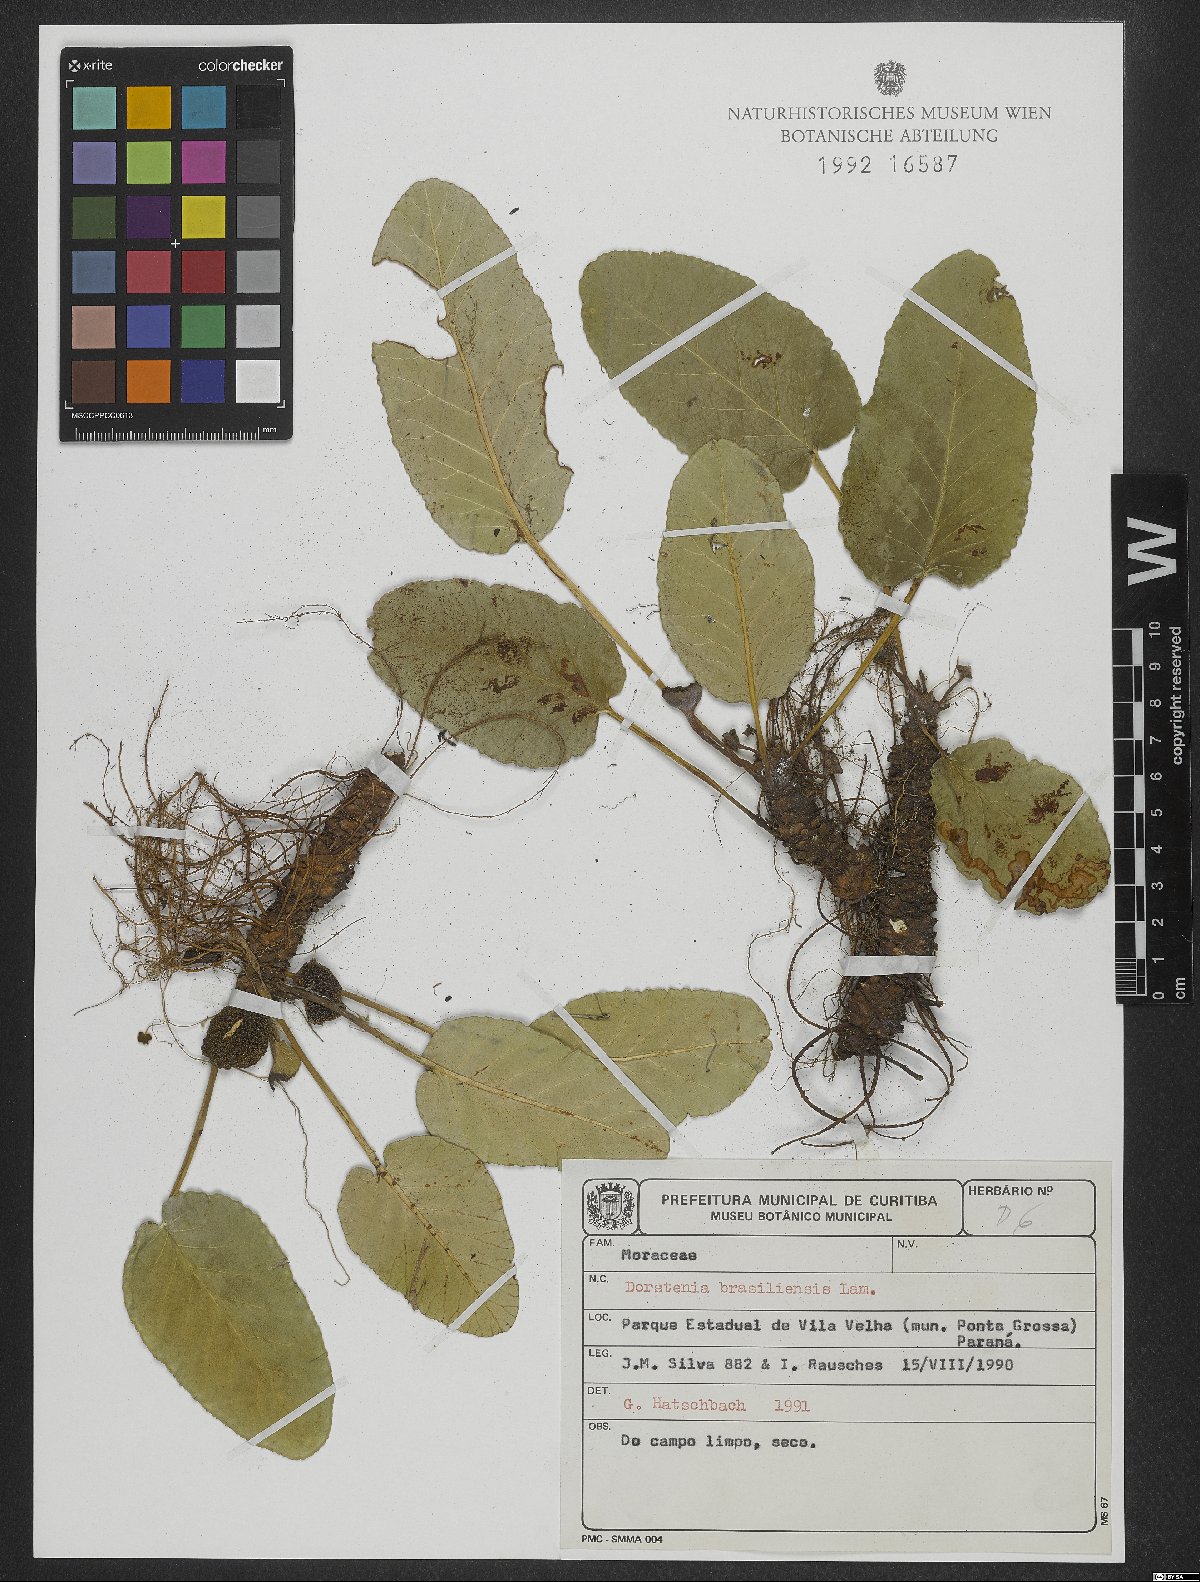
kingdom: Plantae
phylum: Tracheophyta
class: Magnoliopsida
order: Rosales
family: Moraceae
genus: Dorstenia
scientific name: Dorstenia brasiliensis
